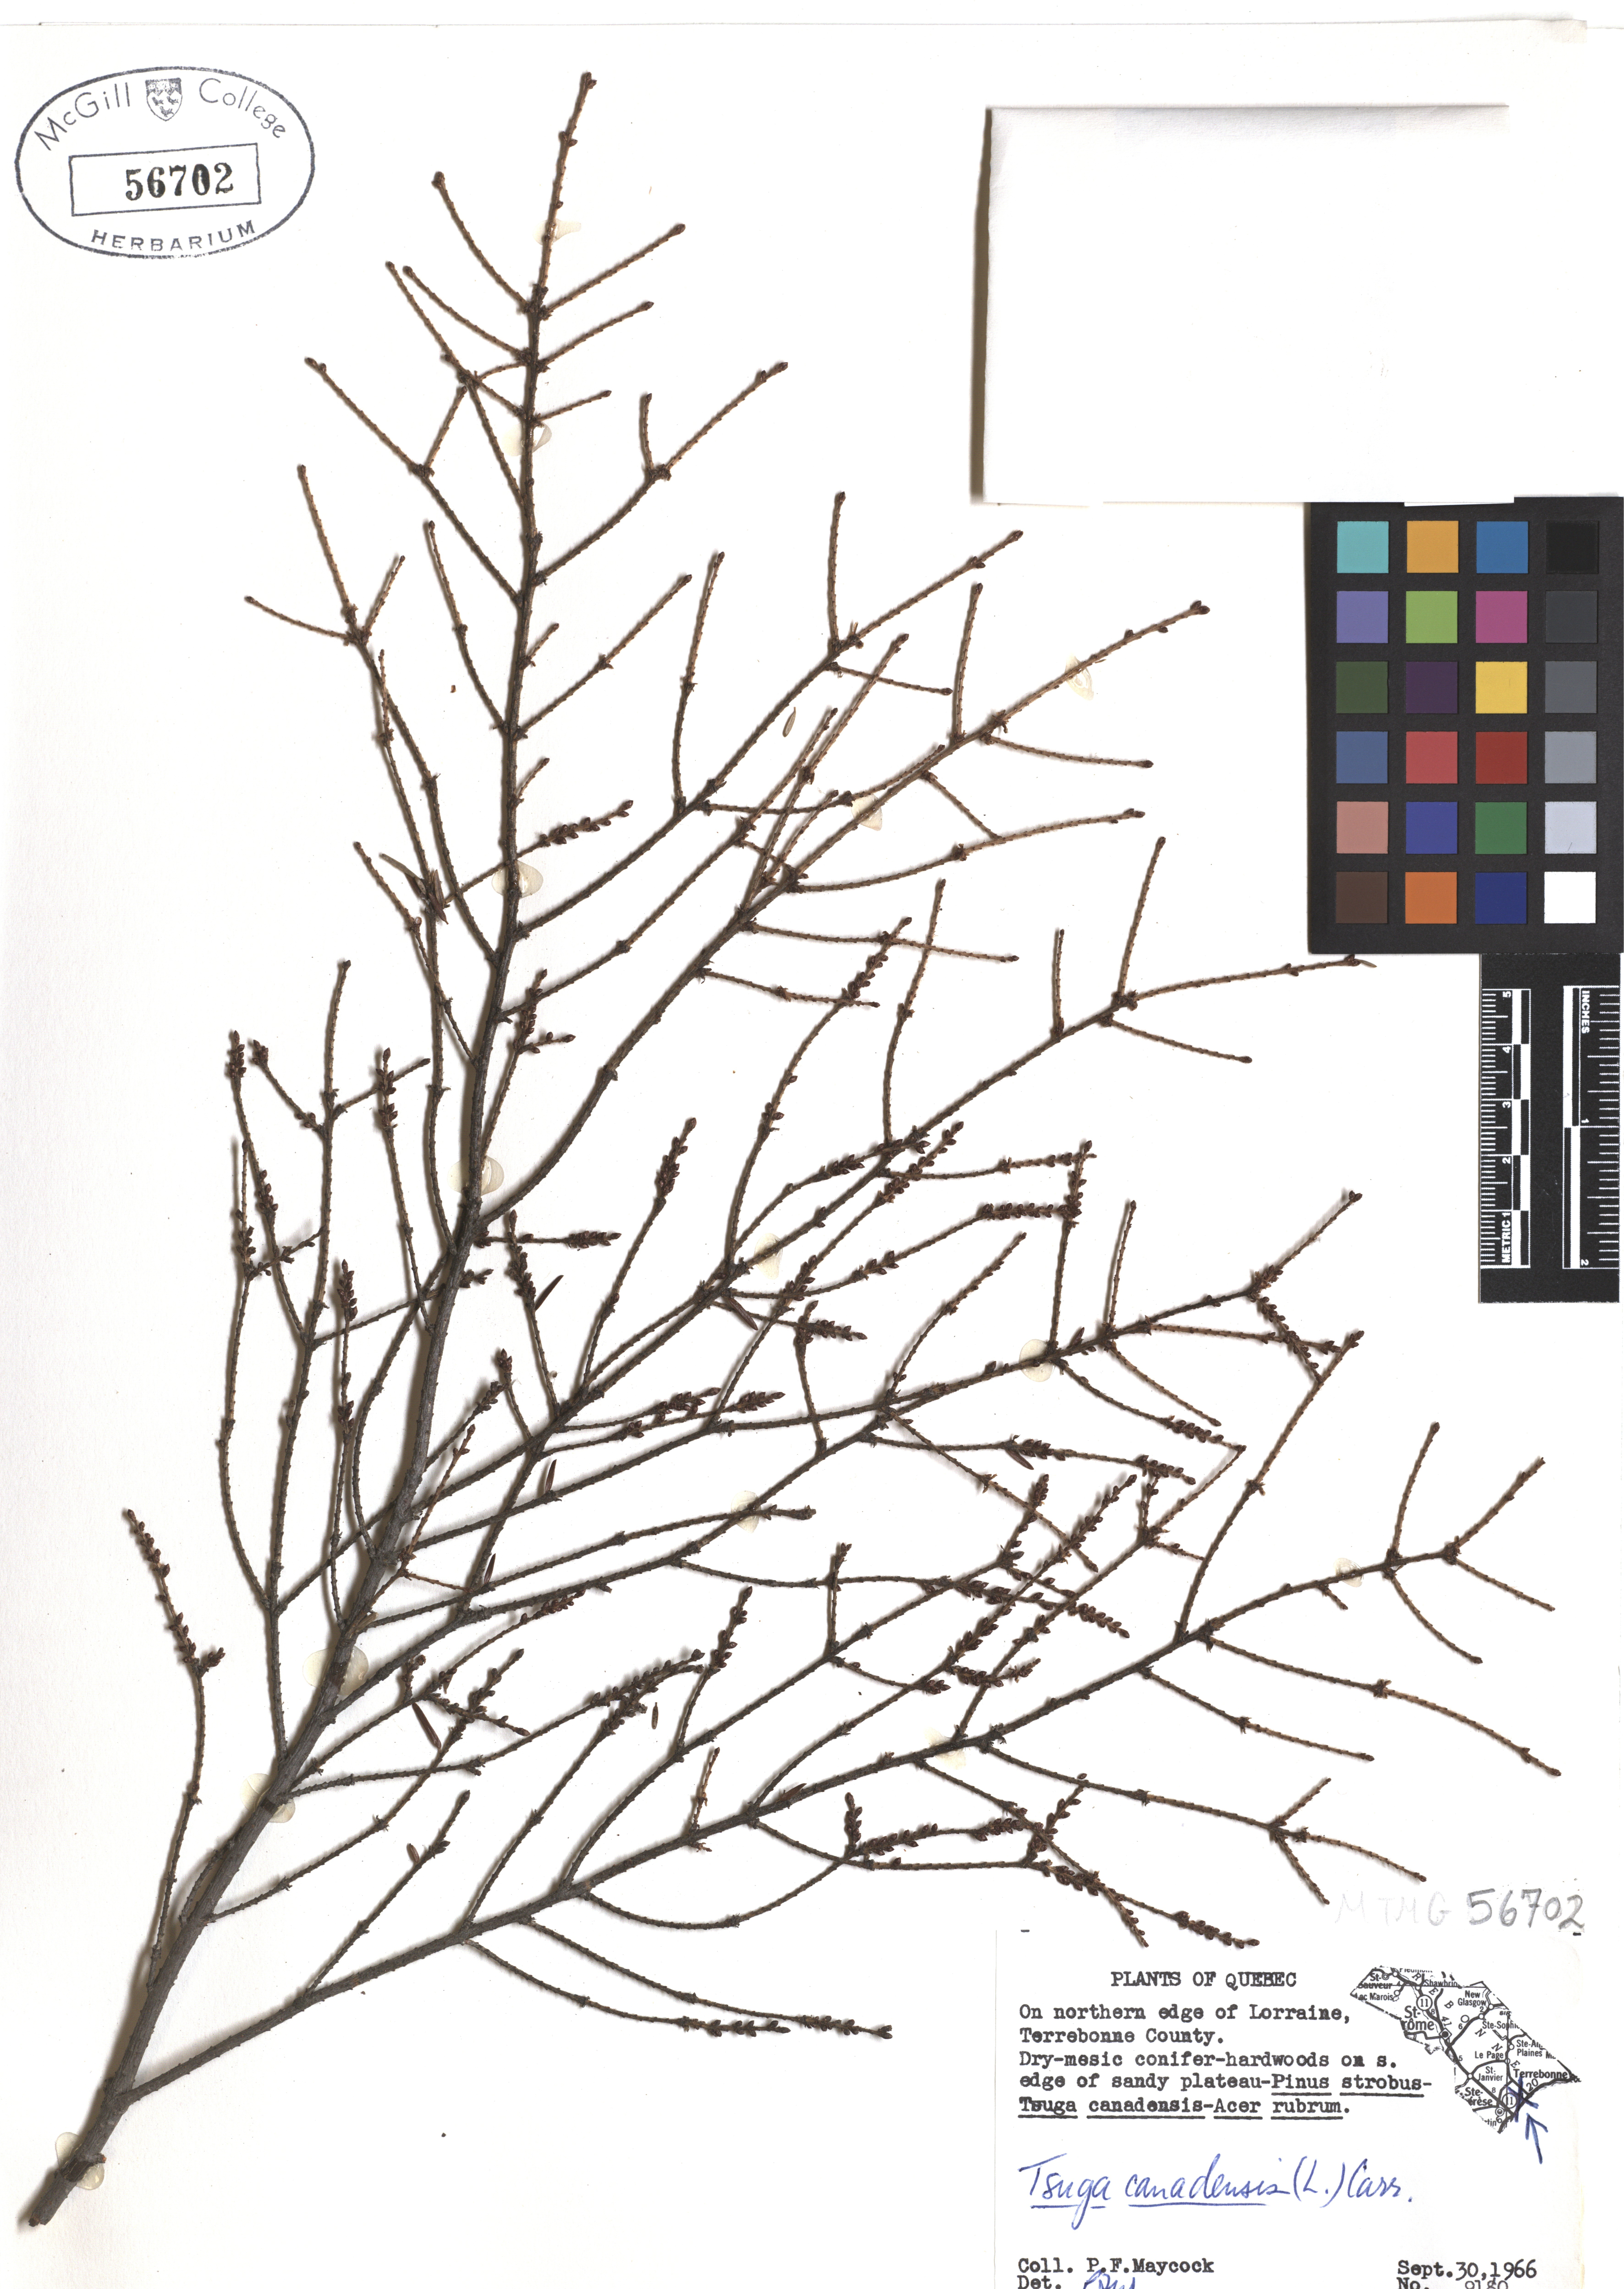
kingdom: Plantae
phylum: Tracheophyta
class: Pinopsida
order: Pinales
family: Pinaceae
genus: Tsuga
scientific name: Tsuga canadensis
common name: Eastern hemlock
